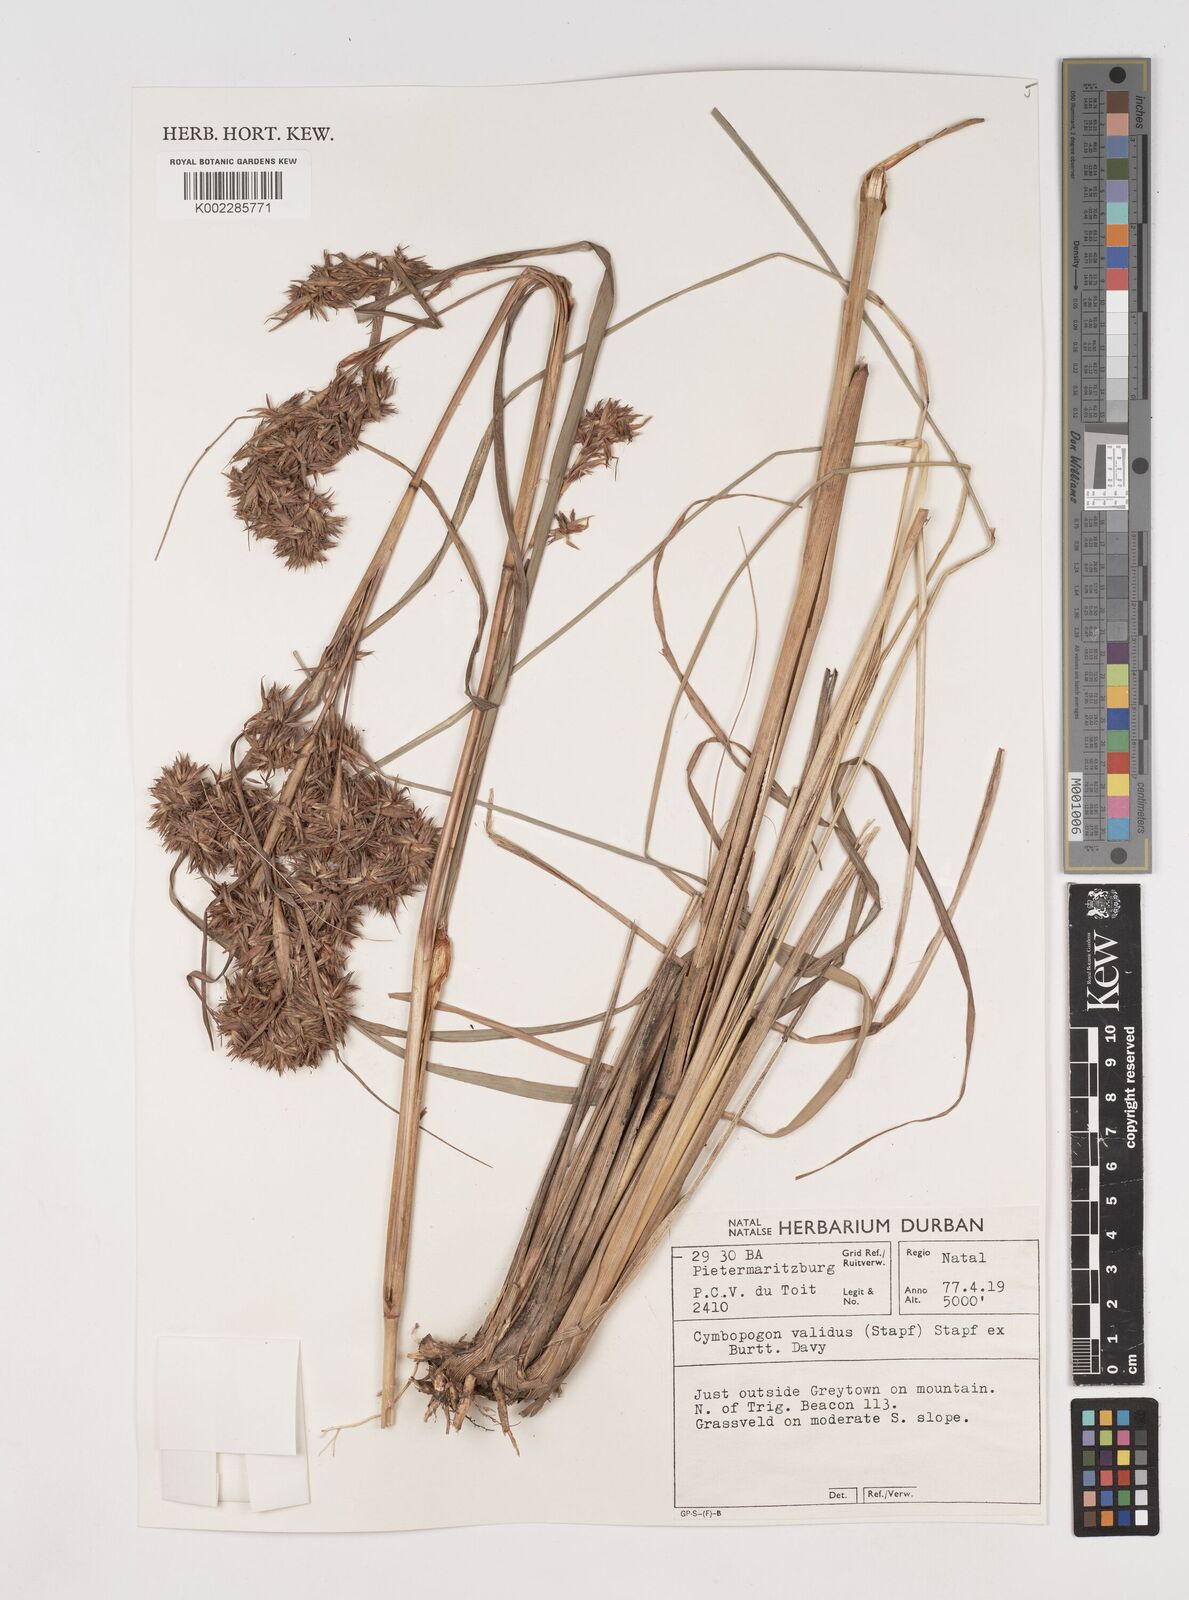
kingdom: Plantae
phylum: Tracheophyta
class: Liliopsida
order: Poales
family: Poaceae
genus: Cymbopogon
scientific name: Cymbopogon nardus
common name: Giant turpentine grass
